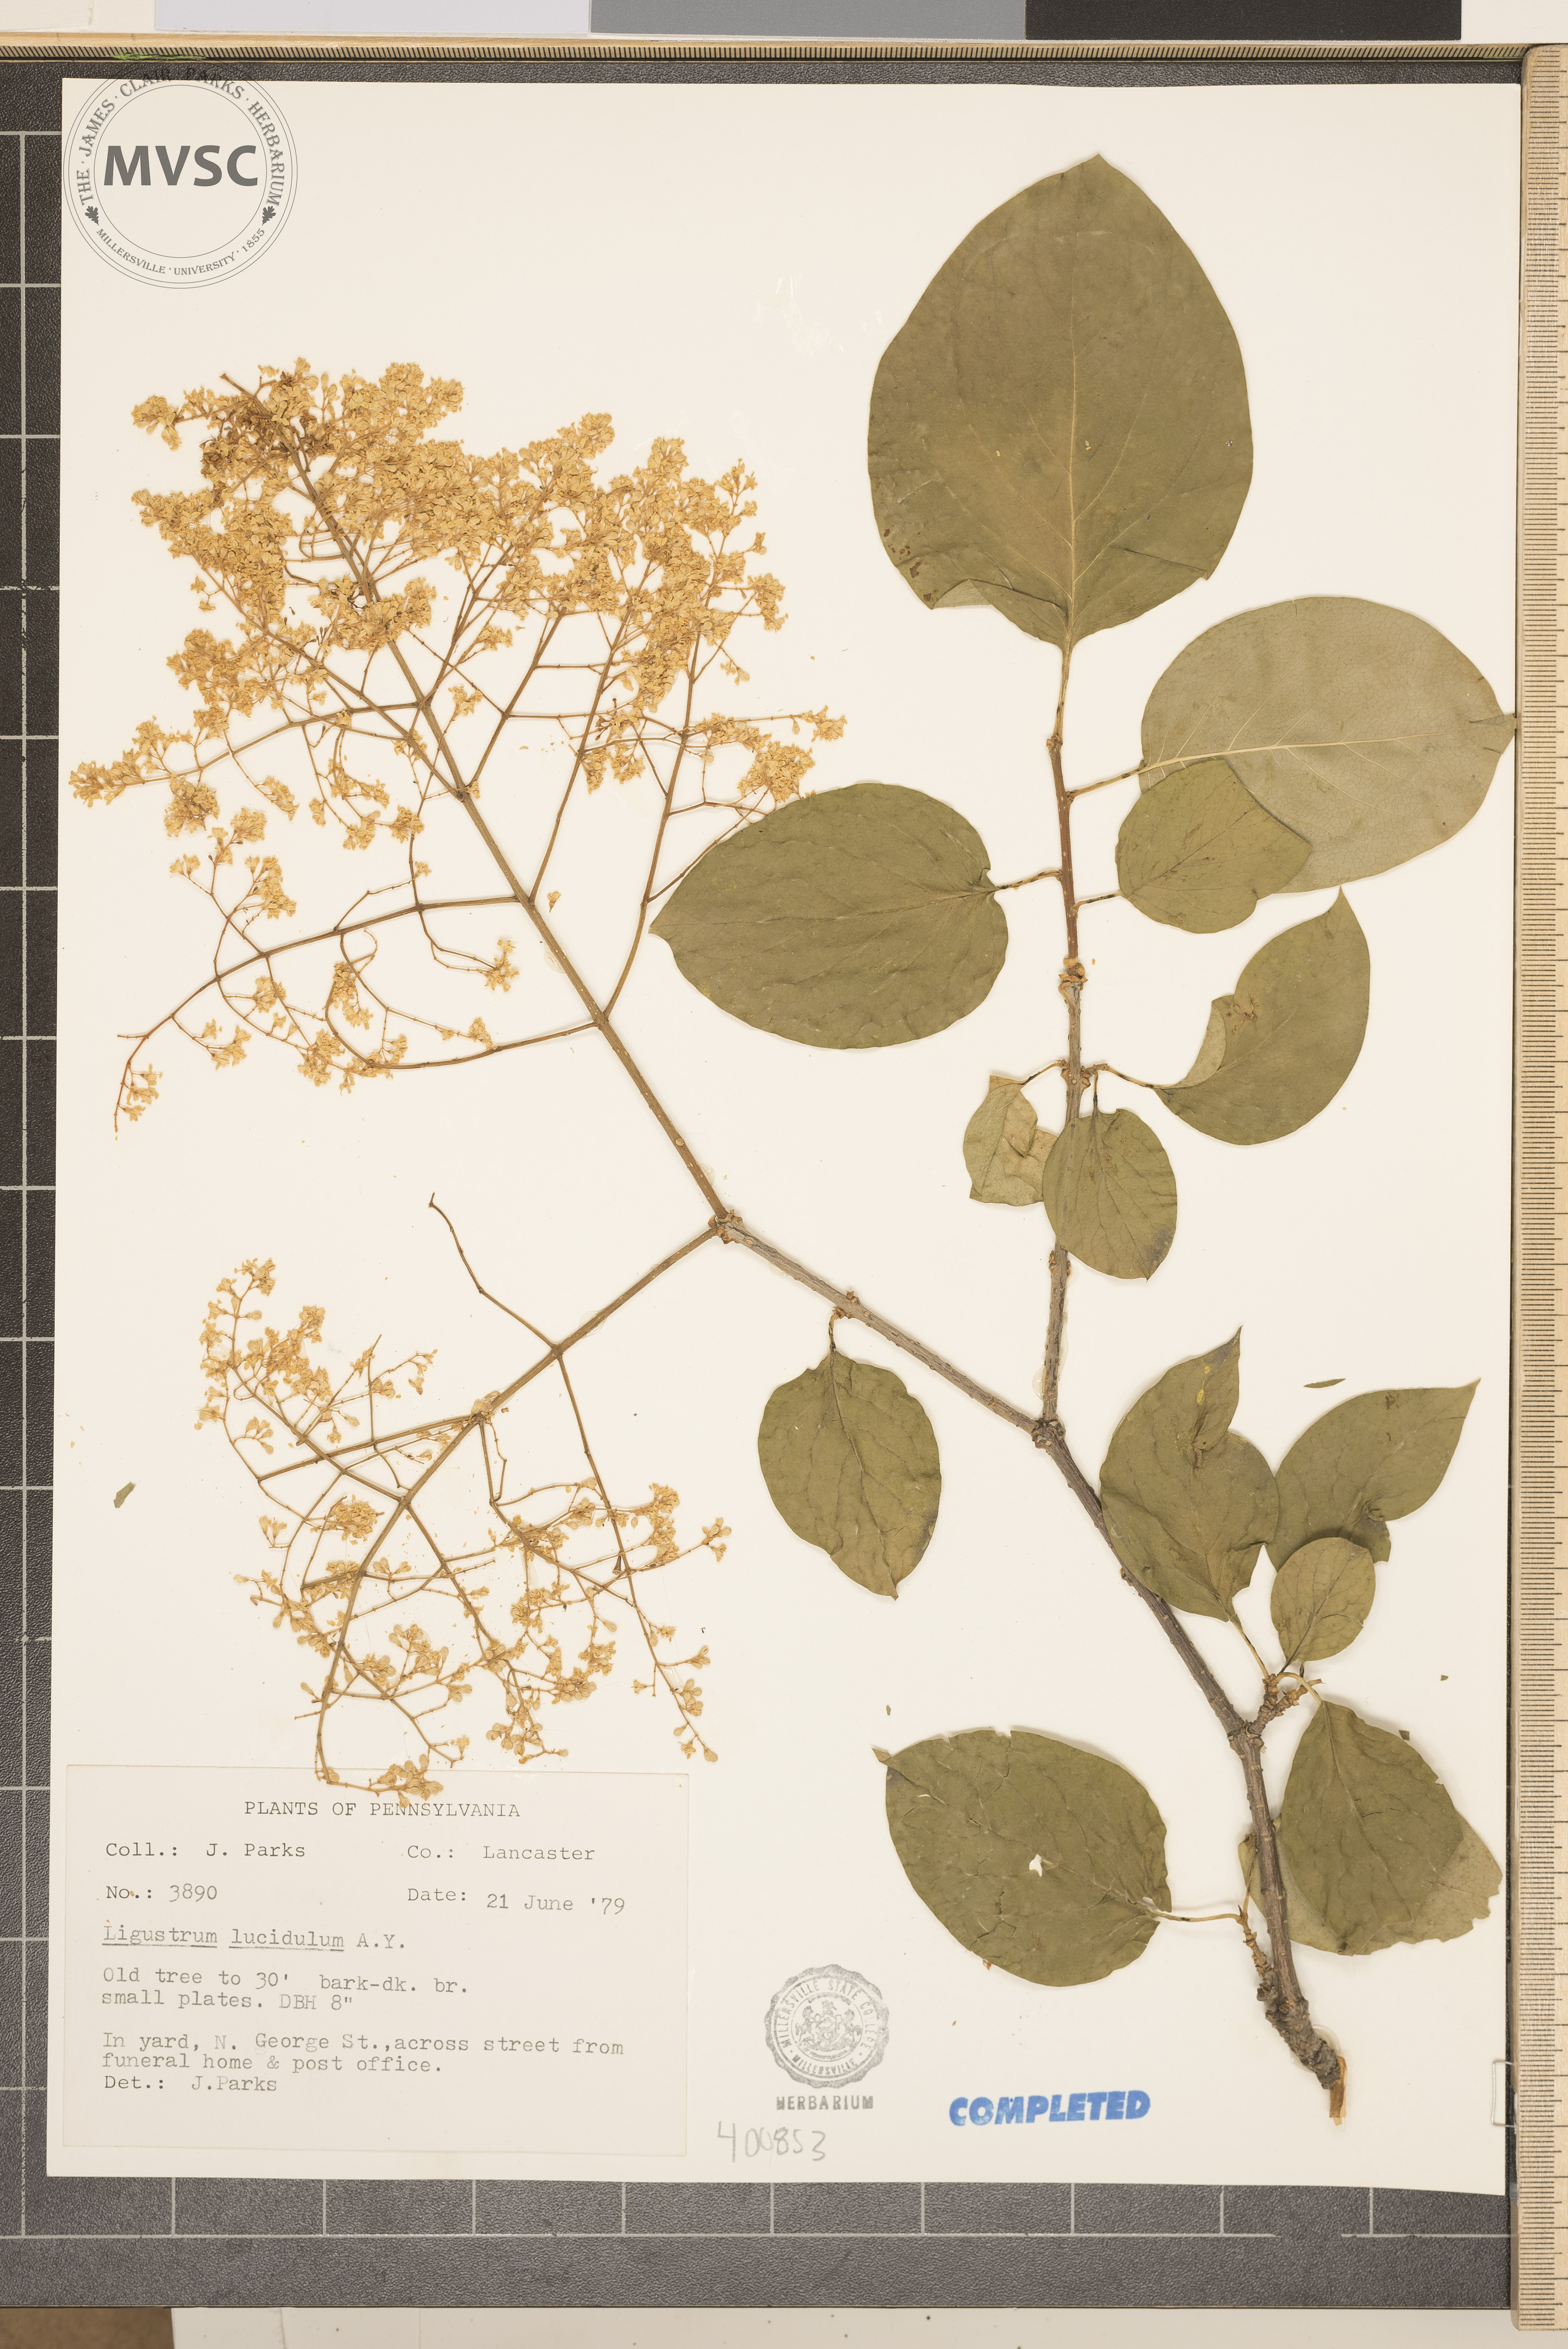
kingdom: Plantae
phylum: Tracheophyta
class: Magnoliopsida
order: Lamiales
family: Oleaceae
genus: Ligustrum
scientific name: Ligustrum lucidum
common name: Glossy privet
